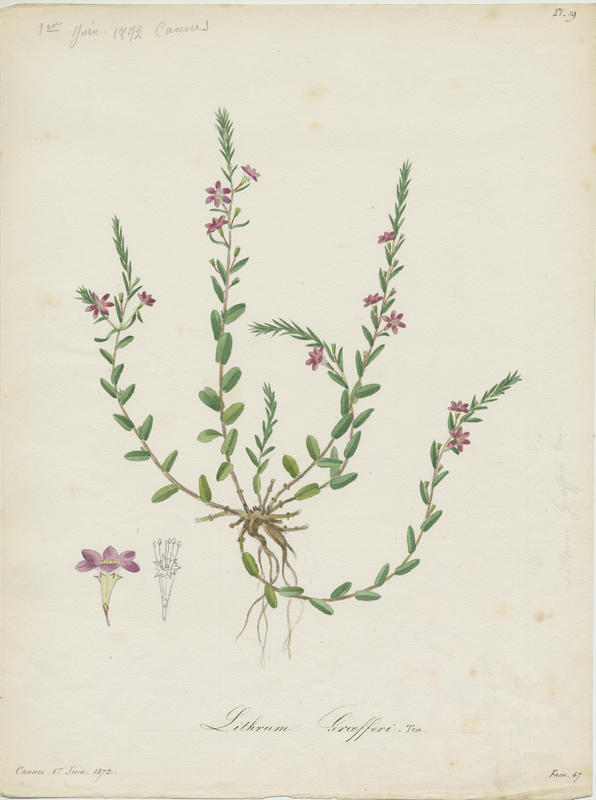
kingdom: Plantae
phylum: Tracheophyta
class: Magnoliopsida
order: Myrtales
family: Lythraceae
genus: Lythrum
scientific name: Lythrum junceum
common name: False grass-poly
